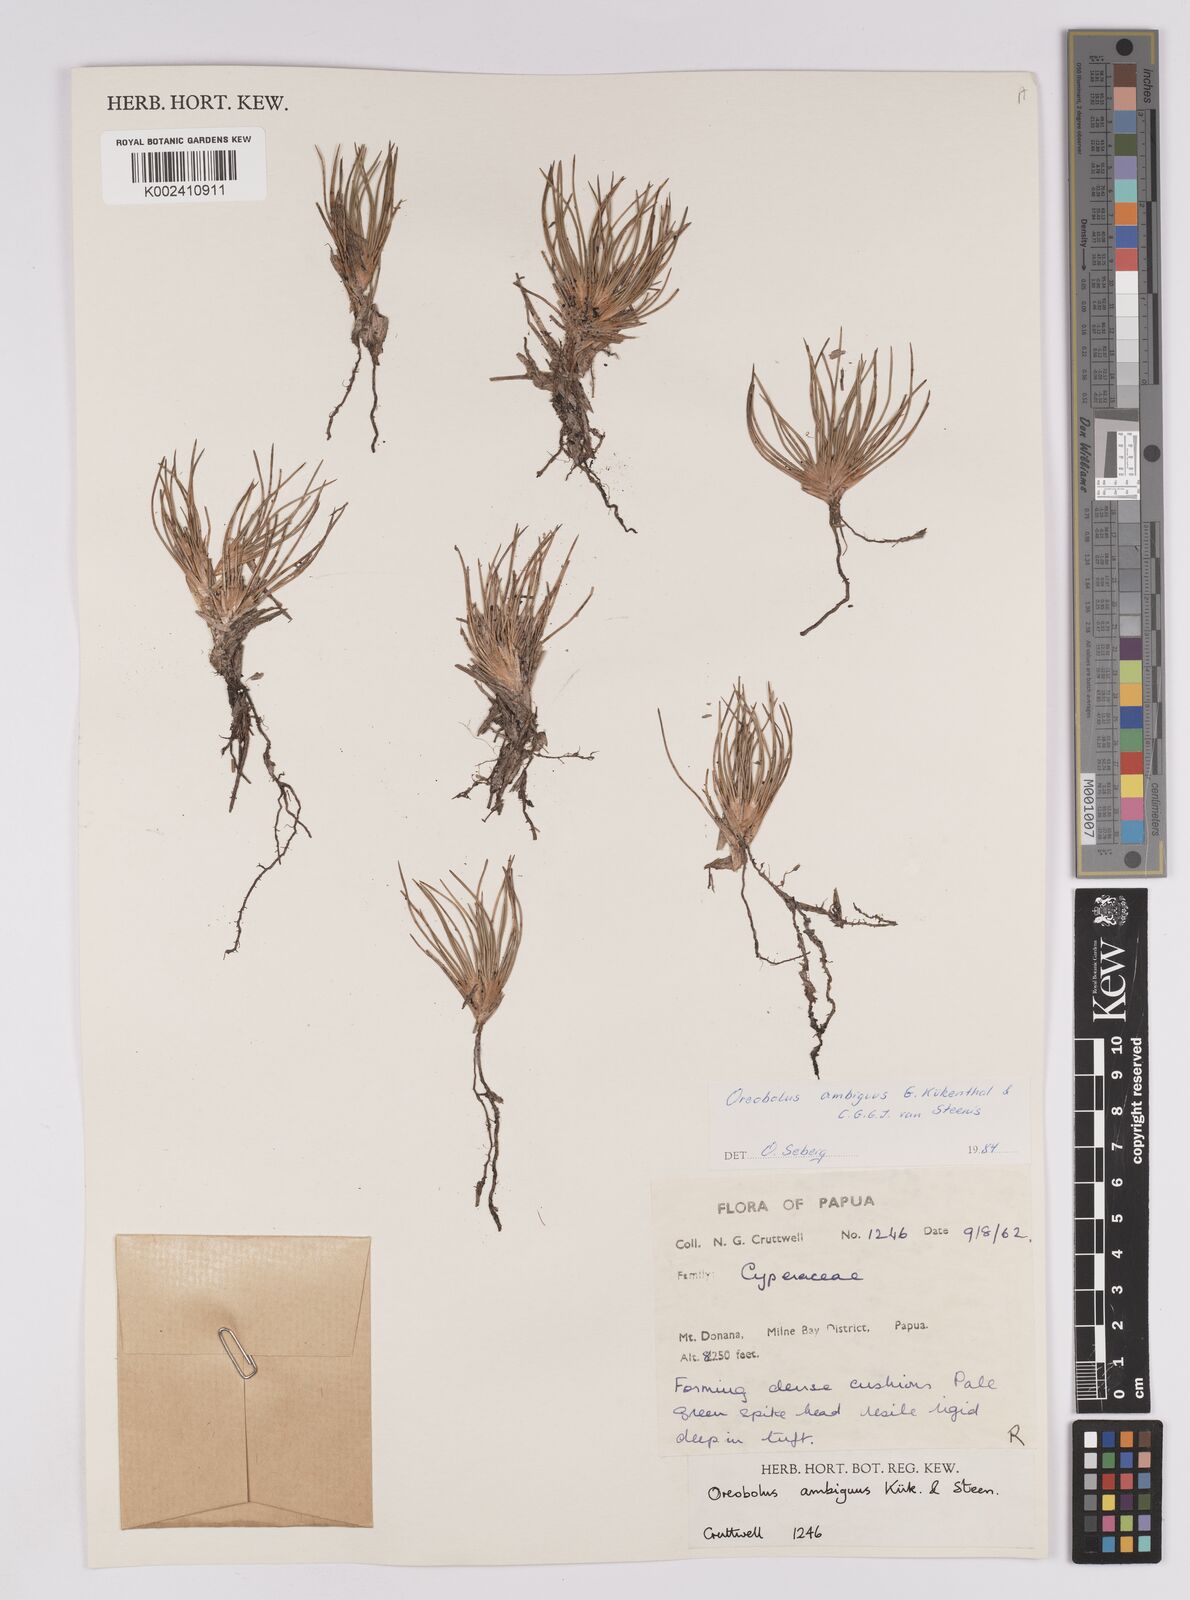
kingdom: Plantae
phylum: Tracheophyta
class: Liliopsida
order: Poales
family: Cyperaceae
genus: Oreobolus
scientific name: Oreobolus ambiguus
